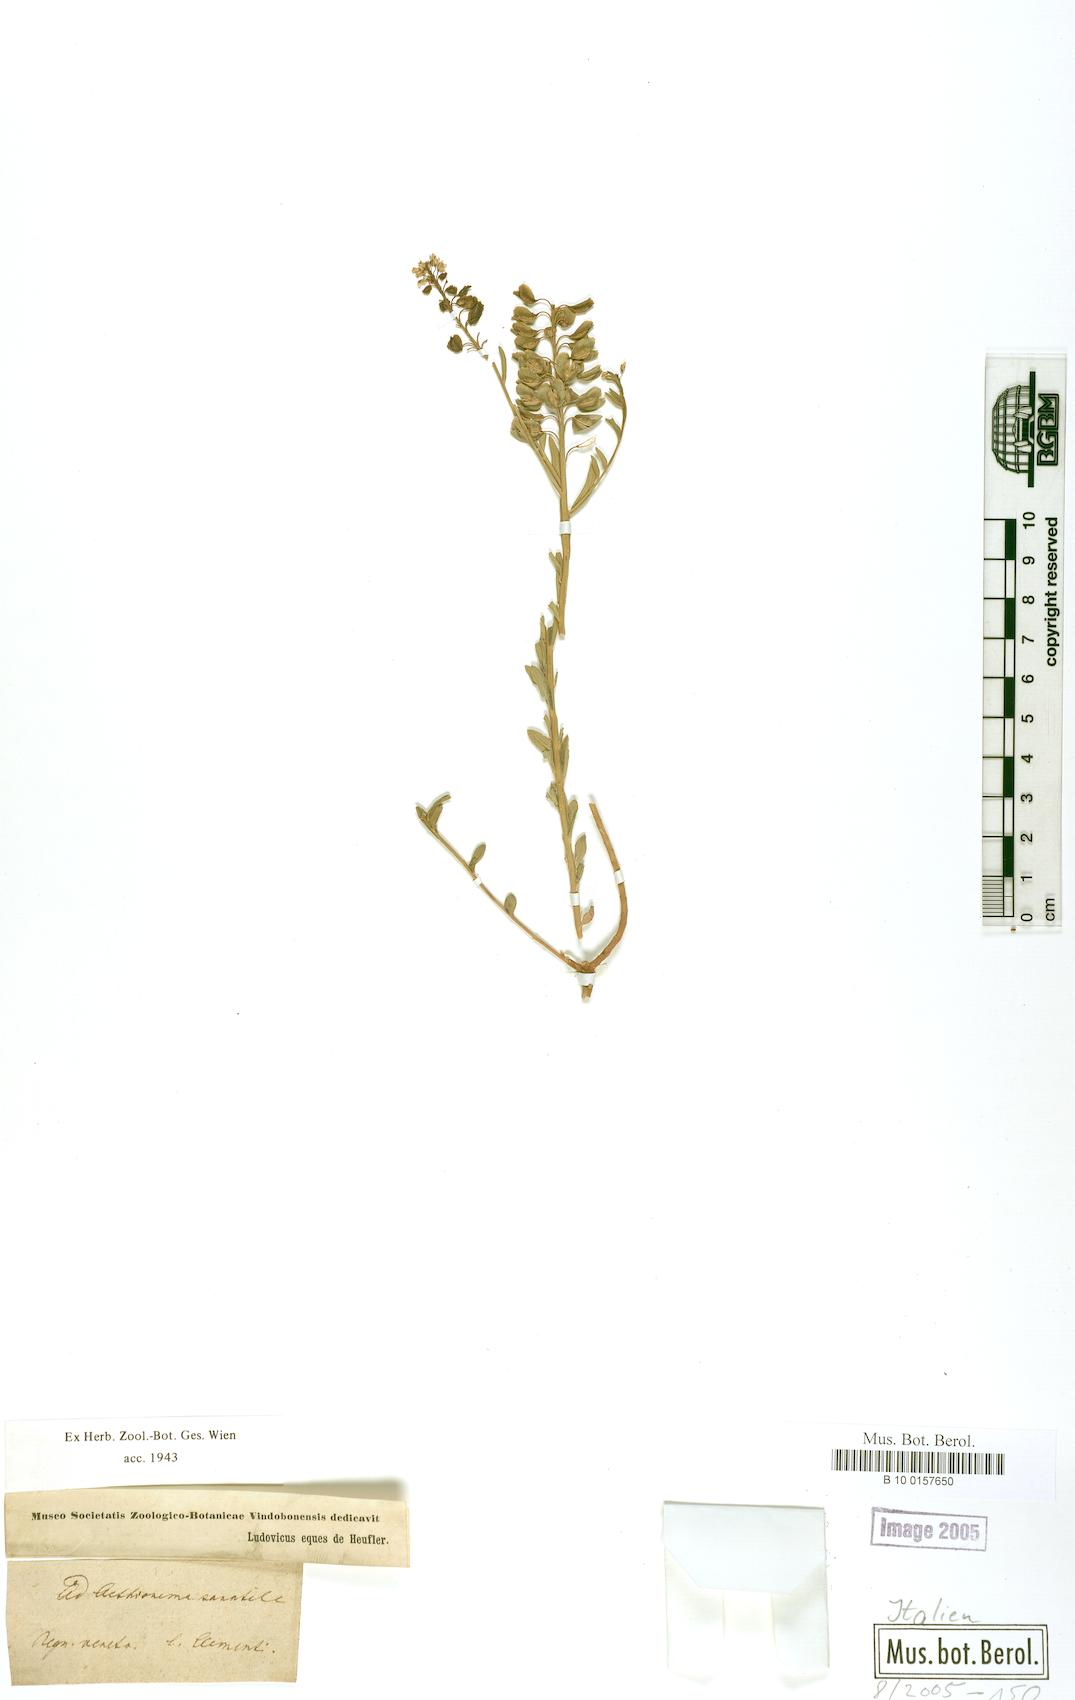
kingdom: Plantae
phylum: Tracheophyta
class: Magnoliopsida
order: Brassicales
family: Brassicaceae
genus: Aethionema
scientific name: Aethionema saxatile
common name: Burnt candytuft
